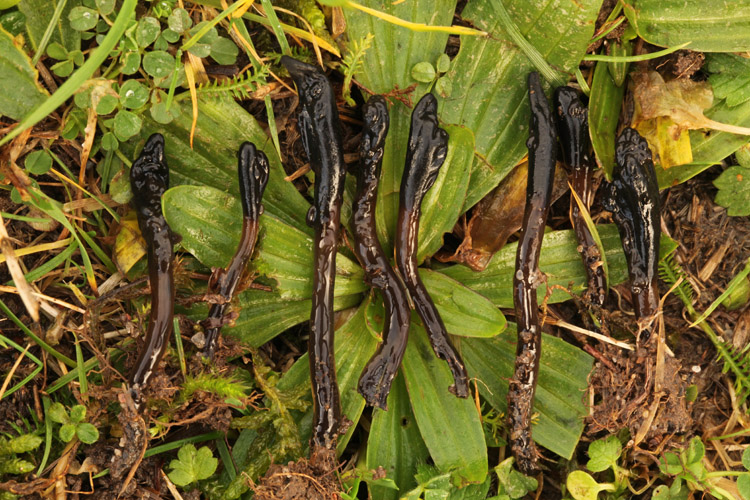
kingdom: Fungi
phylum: Ascomycota
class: Geoglossomycetes
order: Geoglossales
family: Geoglossaceae
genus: Glutinoglossum
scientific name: Glutinoglossum glutinosum
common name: slimet jordtunge
